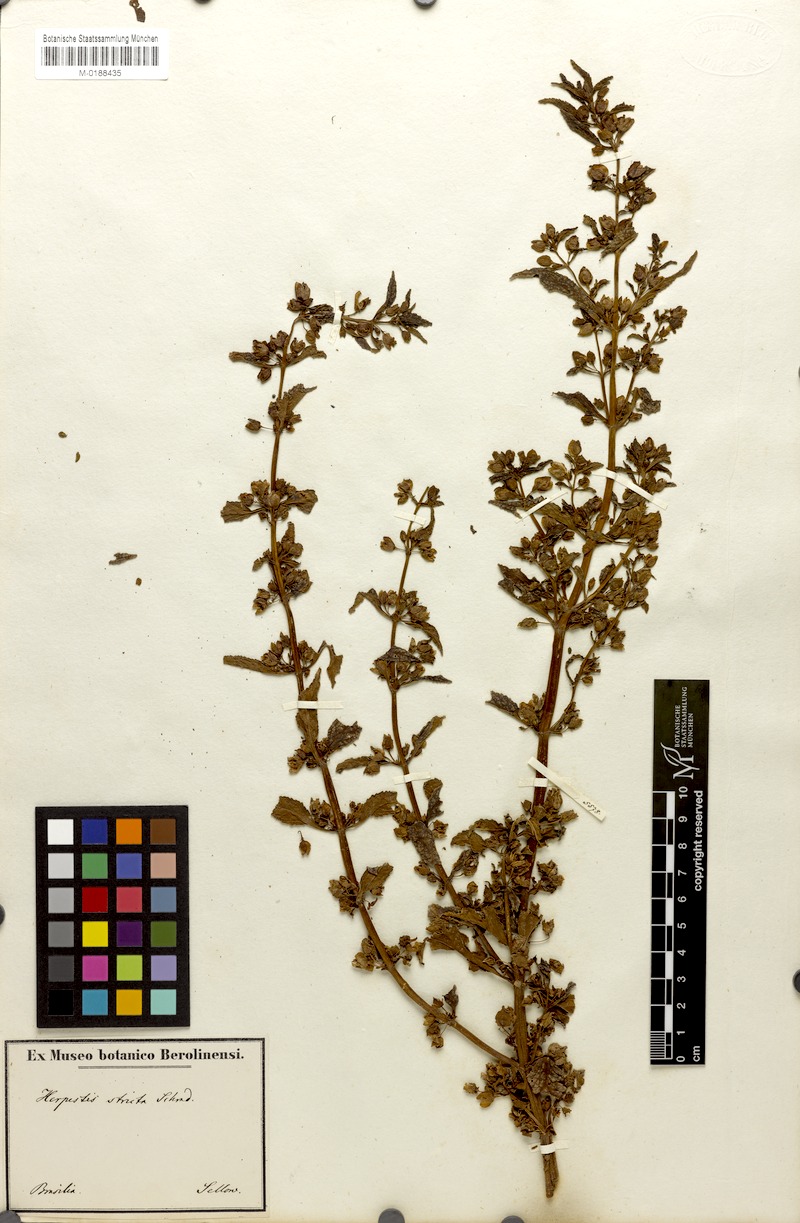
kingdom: Plantae
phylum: Tracheophyta
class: Magnoliopsida
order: Lamiales
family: Plantaginaceae
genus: Bacopa
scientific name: Bacopa stricta
